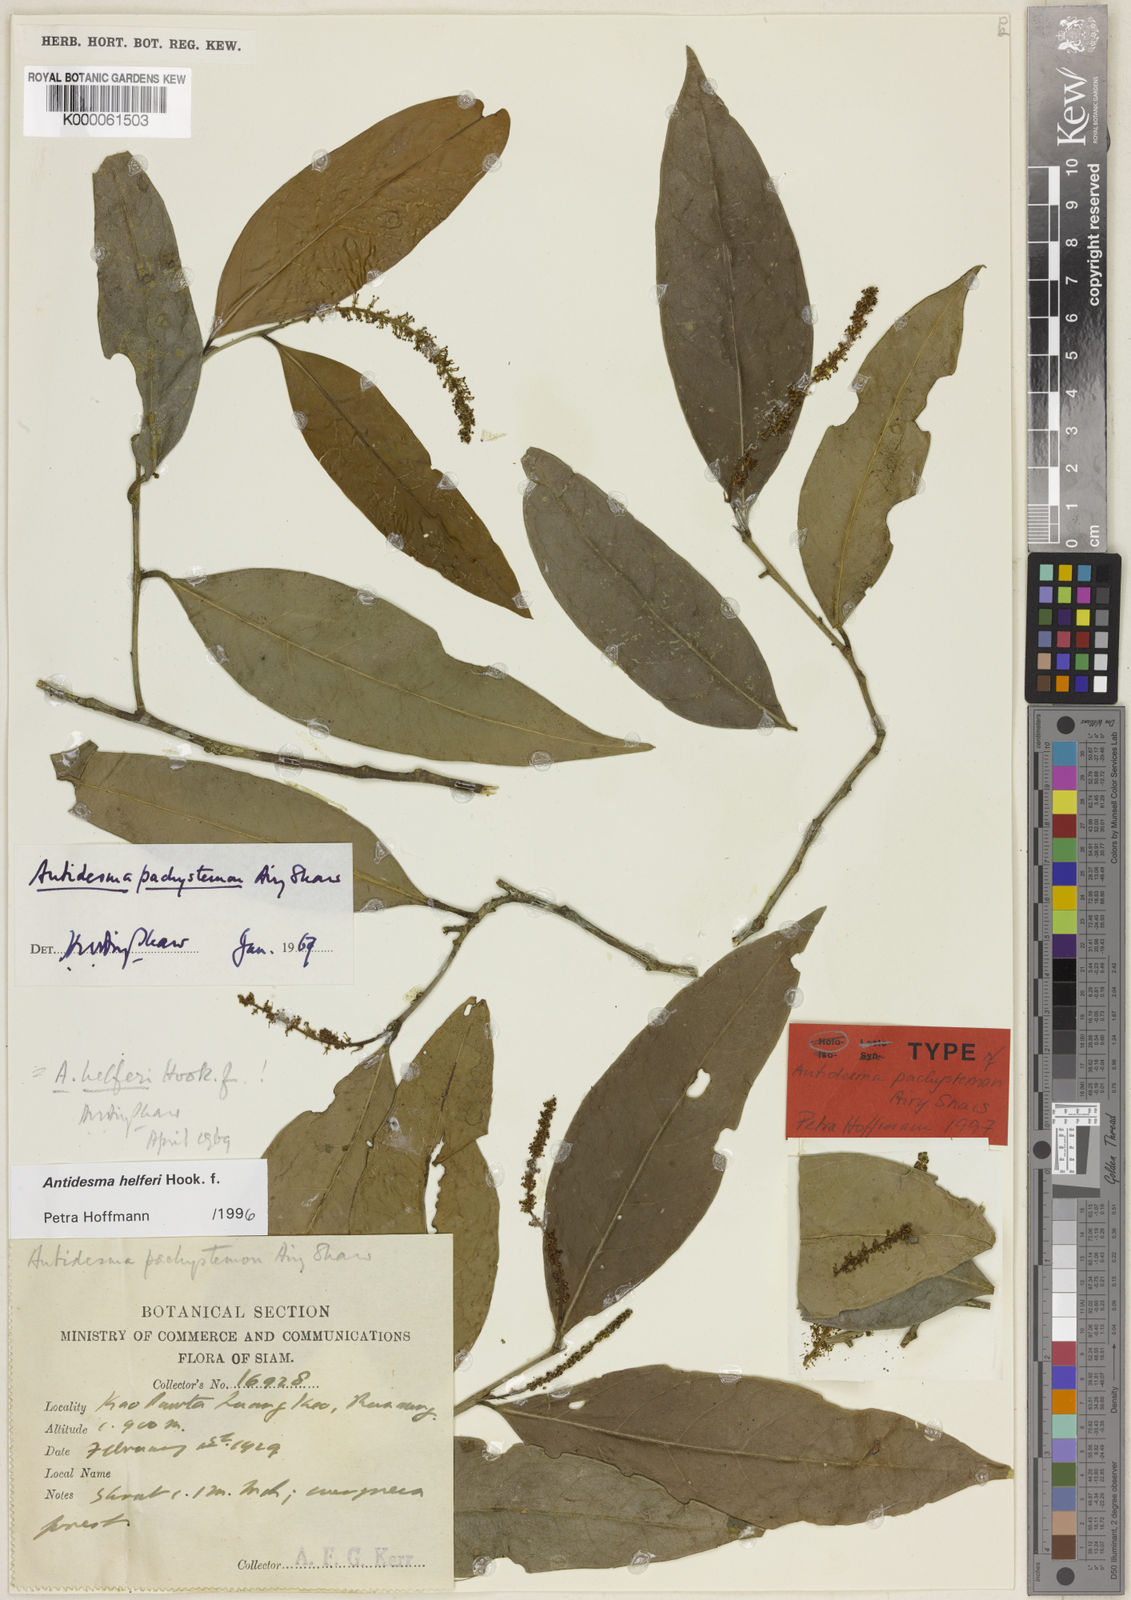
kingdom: Plantae
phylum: Tracheophyta
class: Magnoliopsida
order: Malpighiales
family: Phyllanthaceae
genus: Antidesma
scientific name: Antidesma helferi
